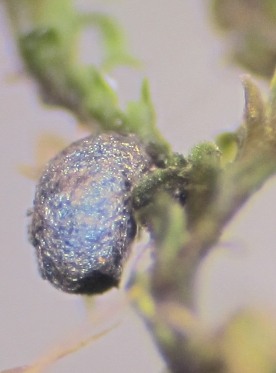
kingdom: Protozoa
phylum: Mycetozoa
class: Myxomycetes
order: Stemonitidales
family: Stemonitidaceae
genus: Colloderma
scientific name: Colloderma robustum
